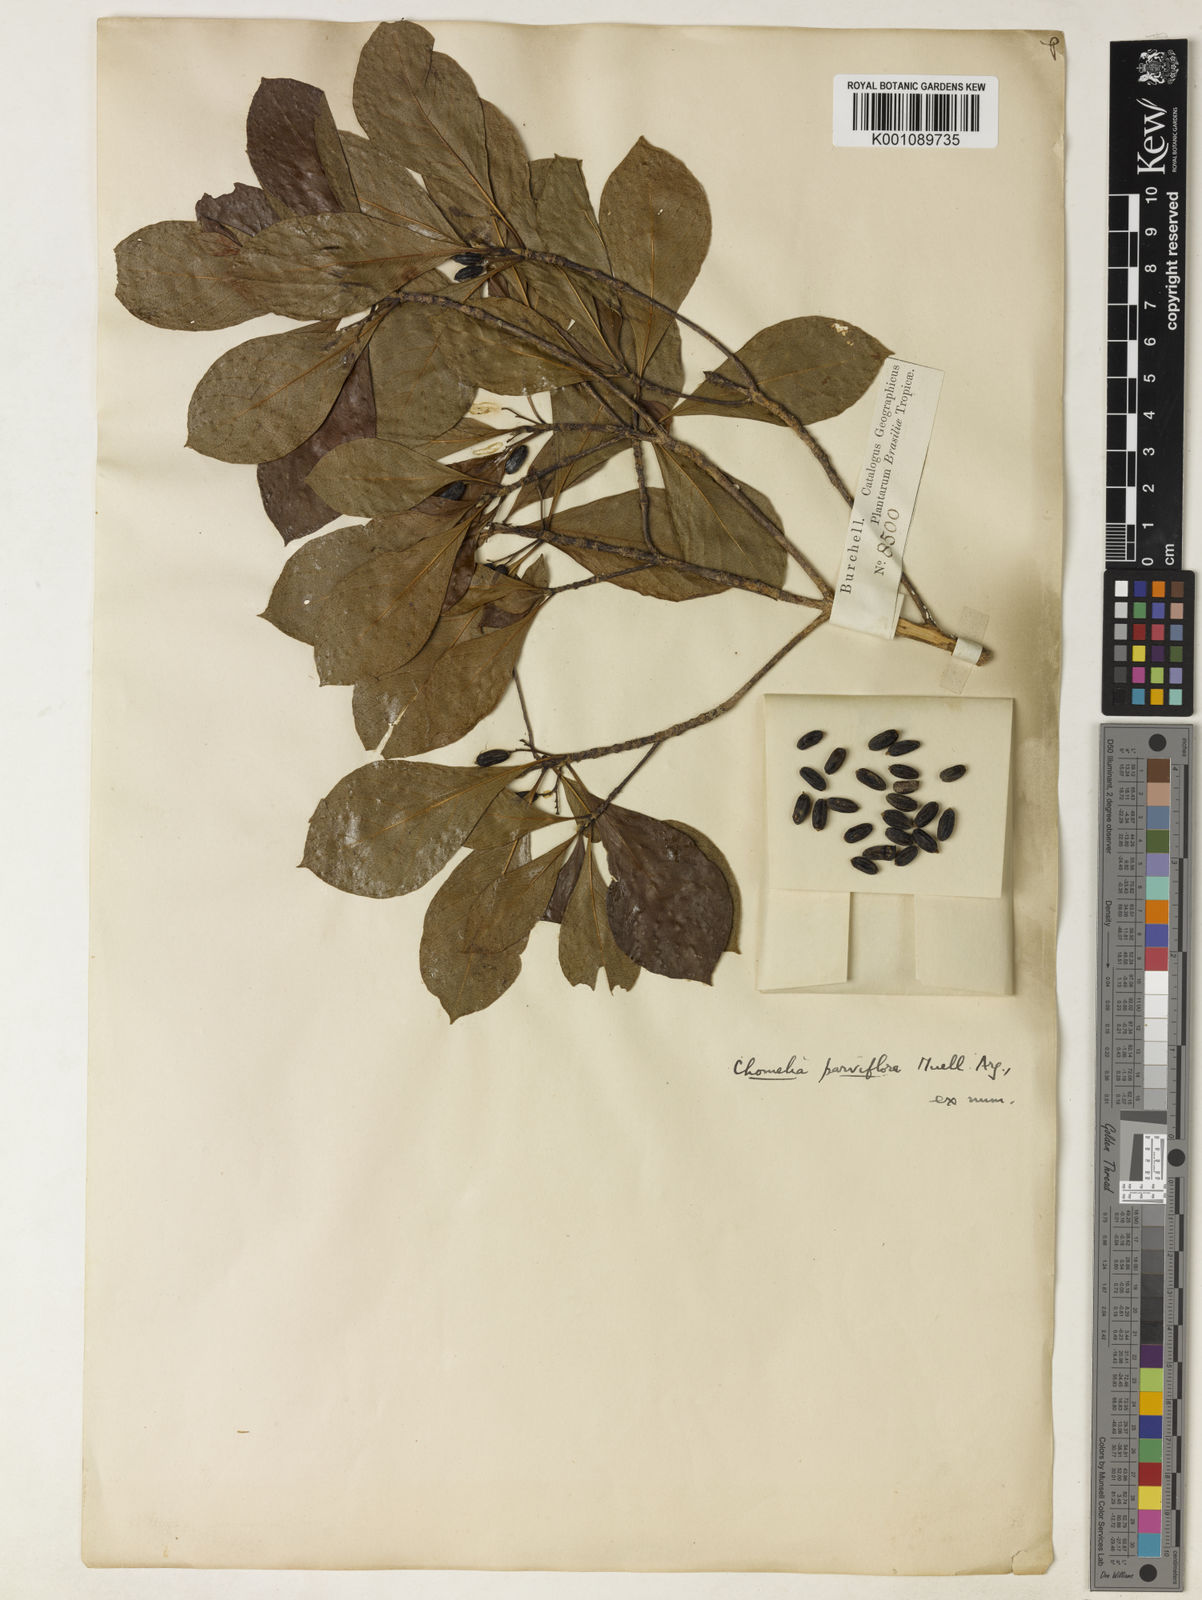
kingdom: Plantae
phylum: Tracheophyta
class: Magnoliopsida
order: Gentianales
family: Rubiaceae
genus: Chomelia
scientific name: Chomelia
